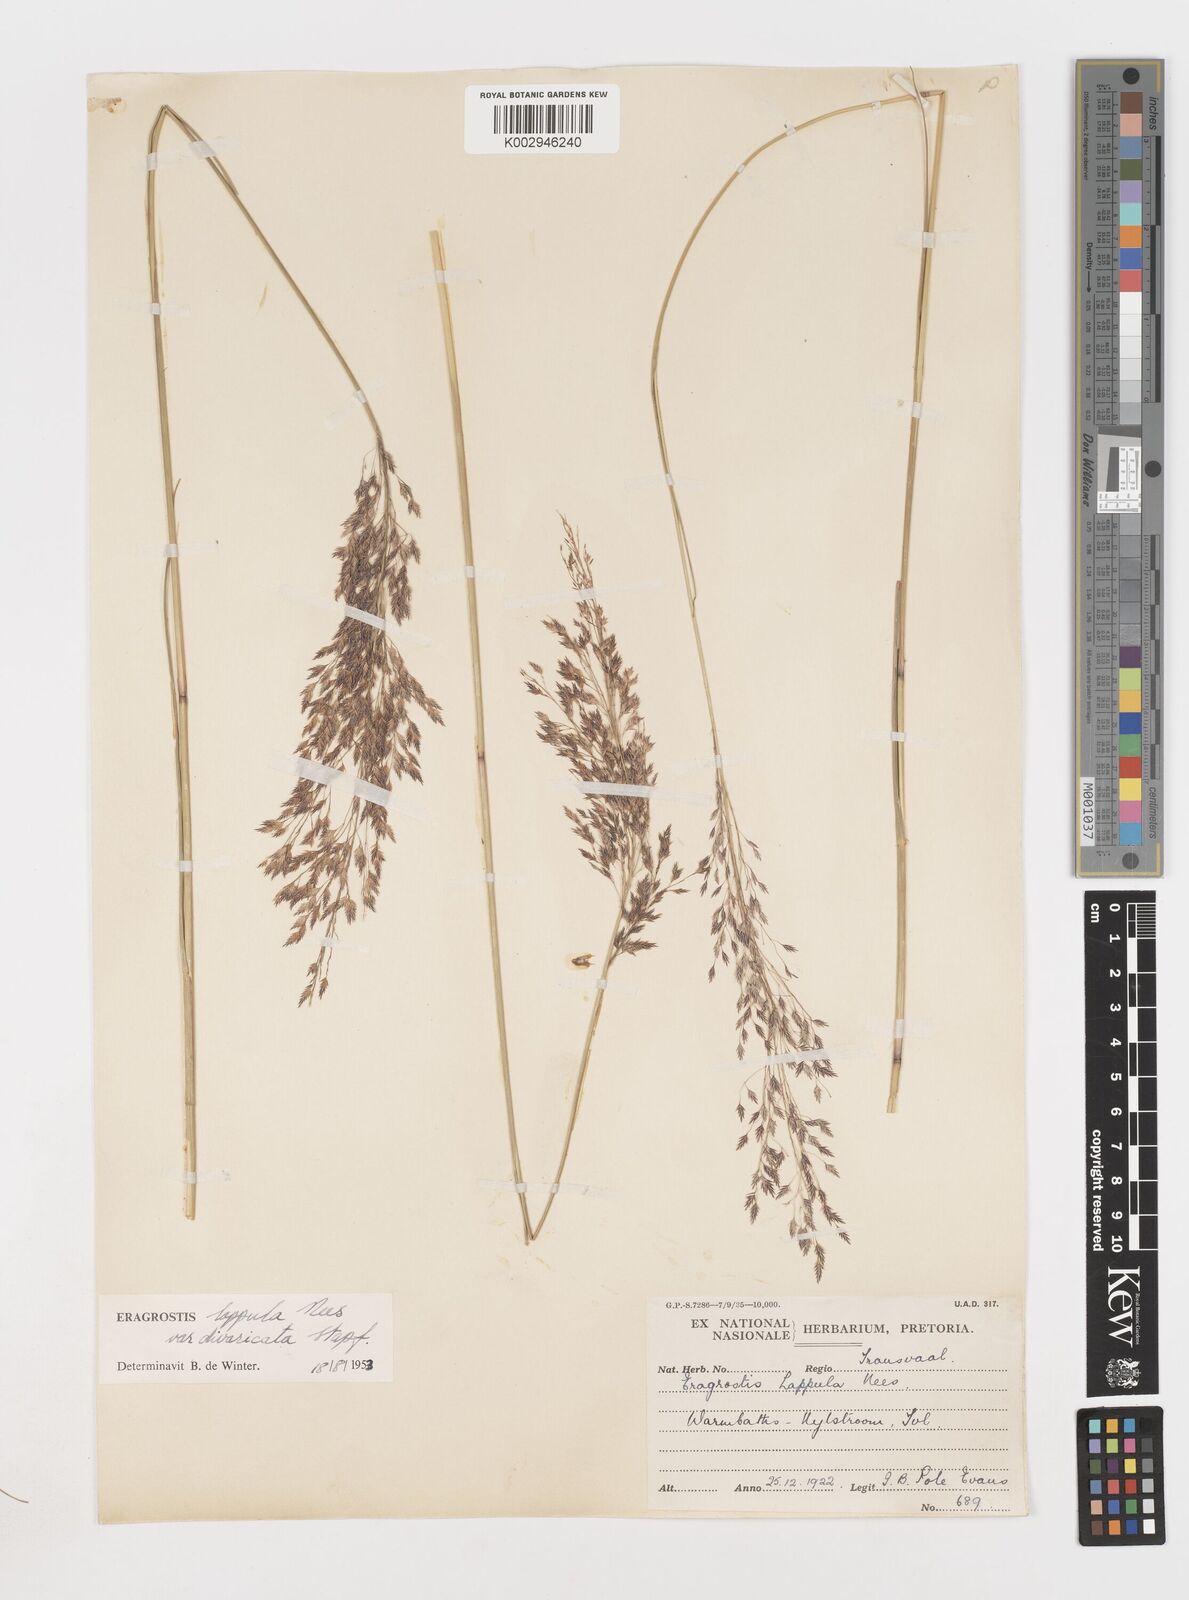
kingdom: Plantae
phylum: Tracheophyta
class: Liliopsida
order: Poales
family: Poaceae
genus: Eragrostis
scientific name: Eragrostis lappula
